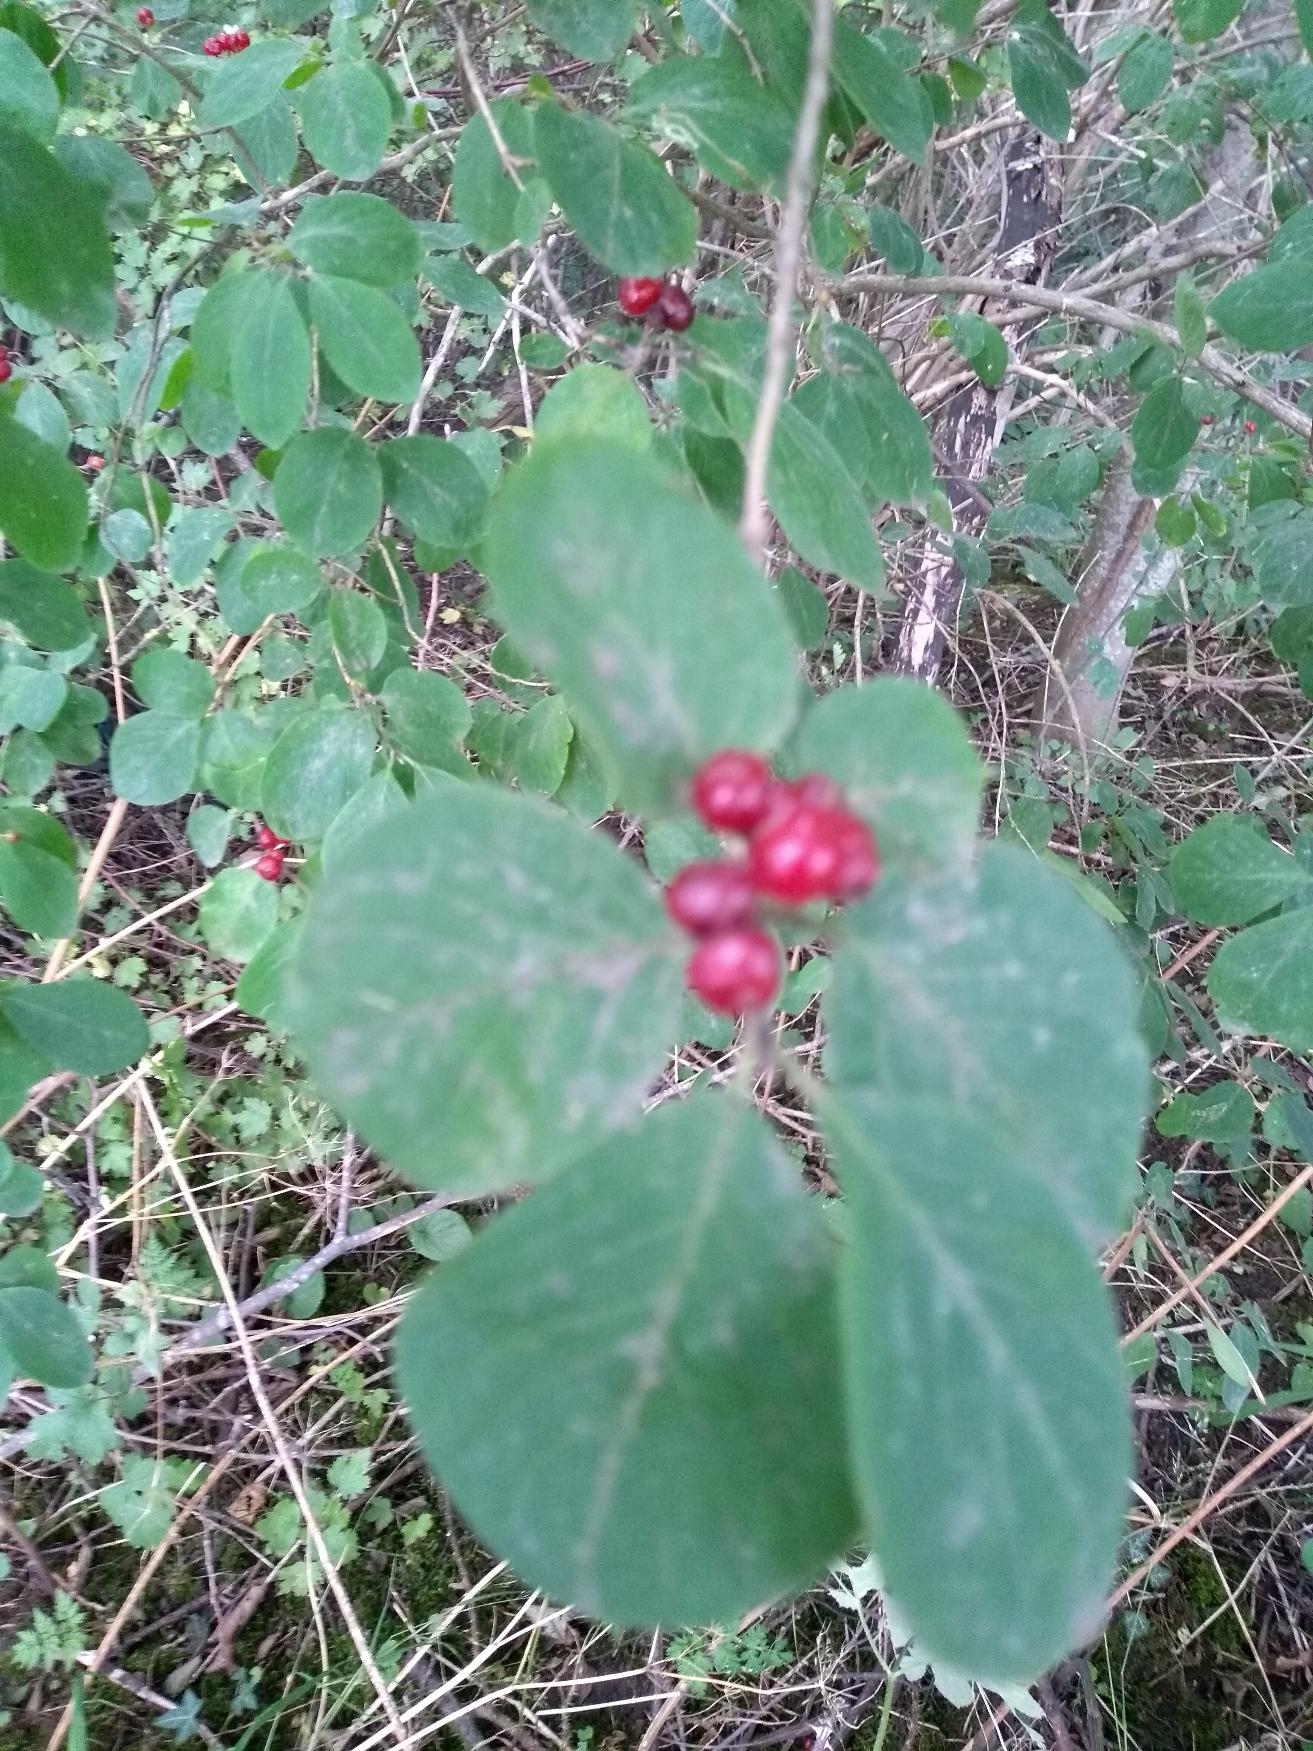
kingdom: Plantae
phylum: Tracheophyta
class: Magnoliopsida
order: Dipsacales
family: Caprifoliaceae
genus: Lonicera
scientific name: Lonicera xylosteum
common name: Dunet gedeblad
